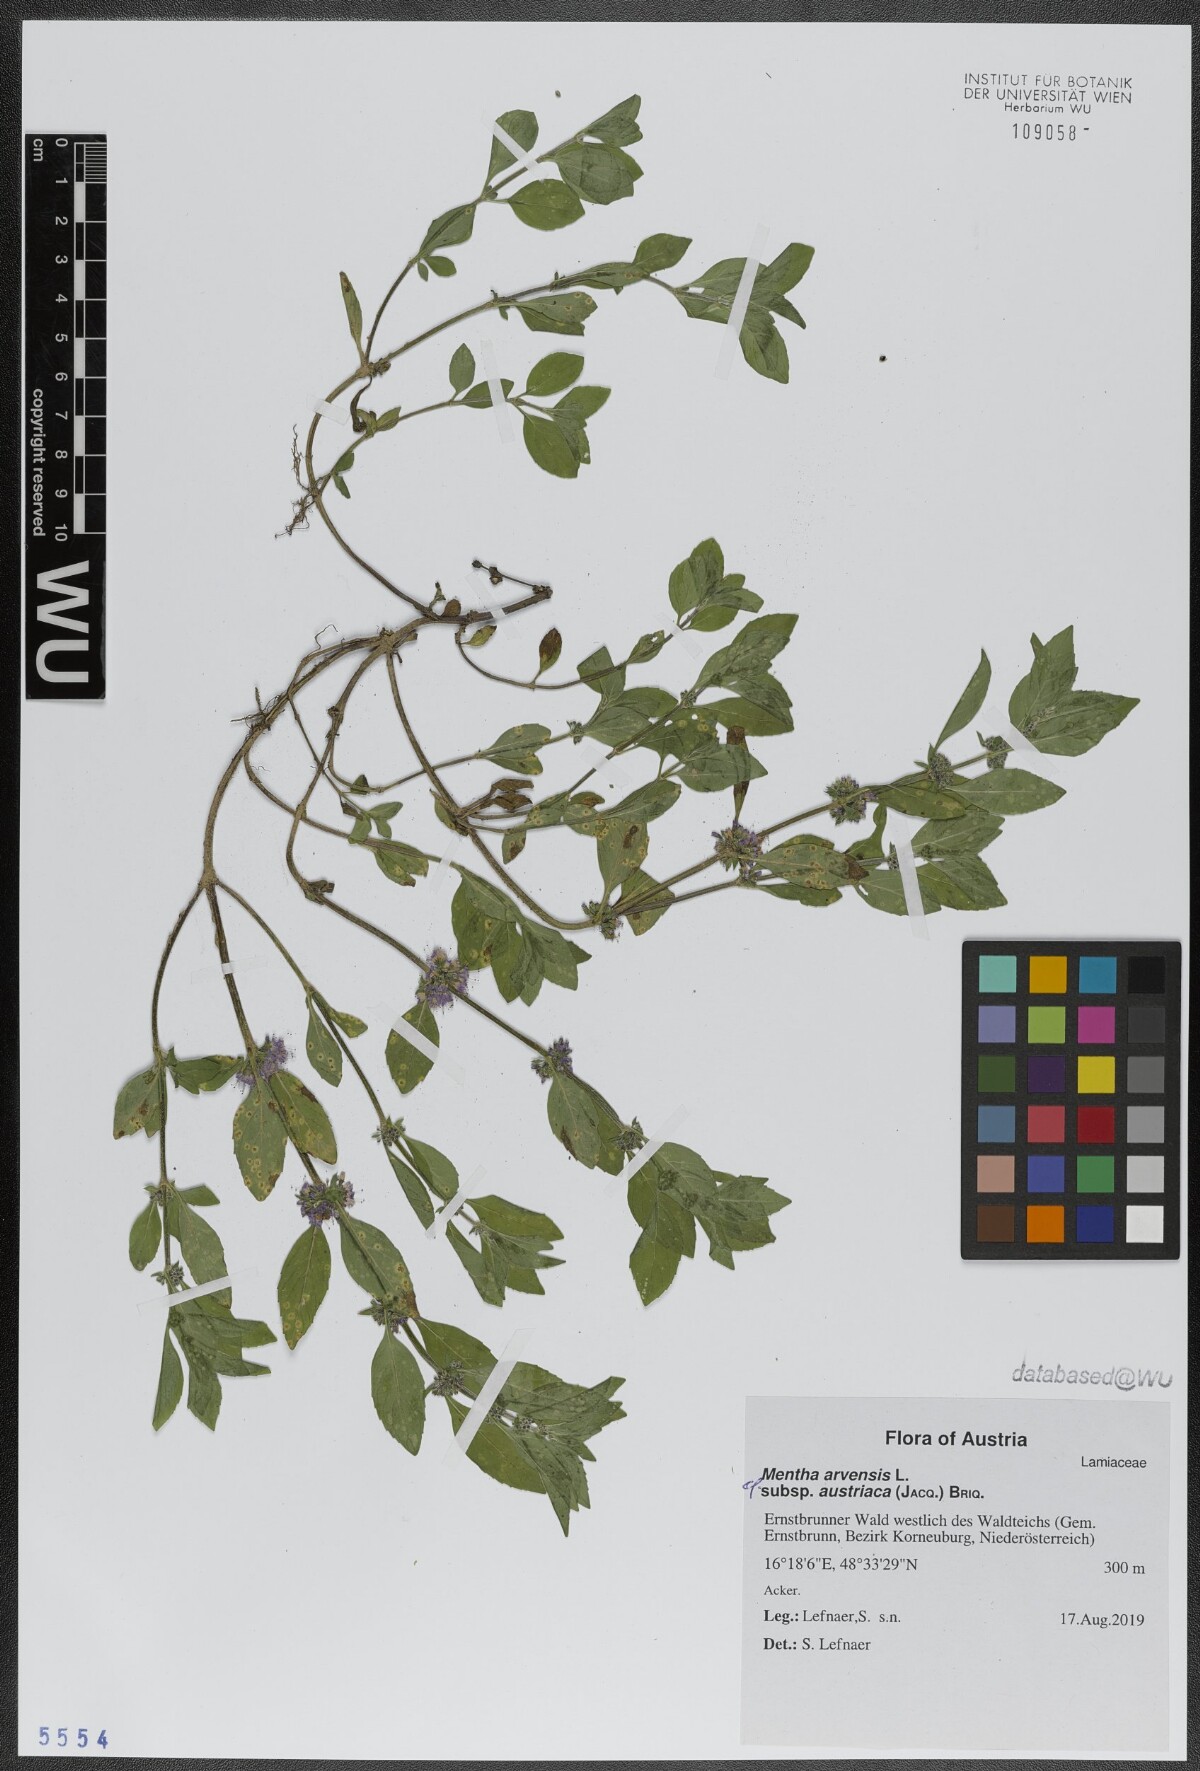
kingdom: Plantae
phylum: Tracheophyta
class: Magnoliopsida
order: Lamiales
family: Lamiaceae
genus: Mentha
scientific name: Mentha arvensis
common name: Corn mint
